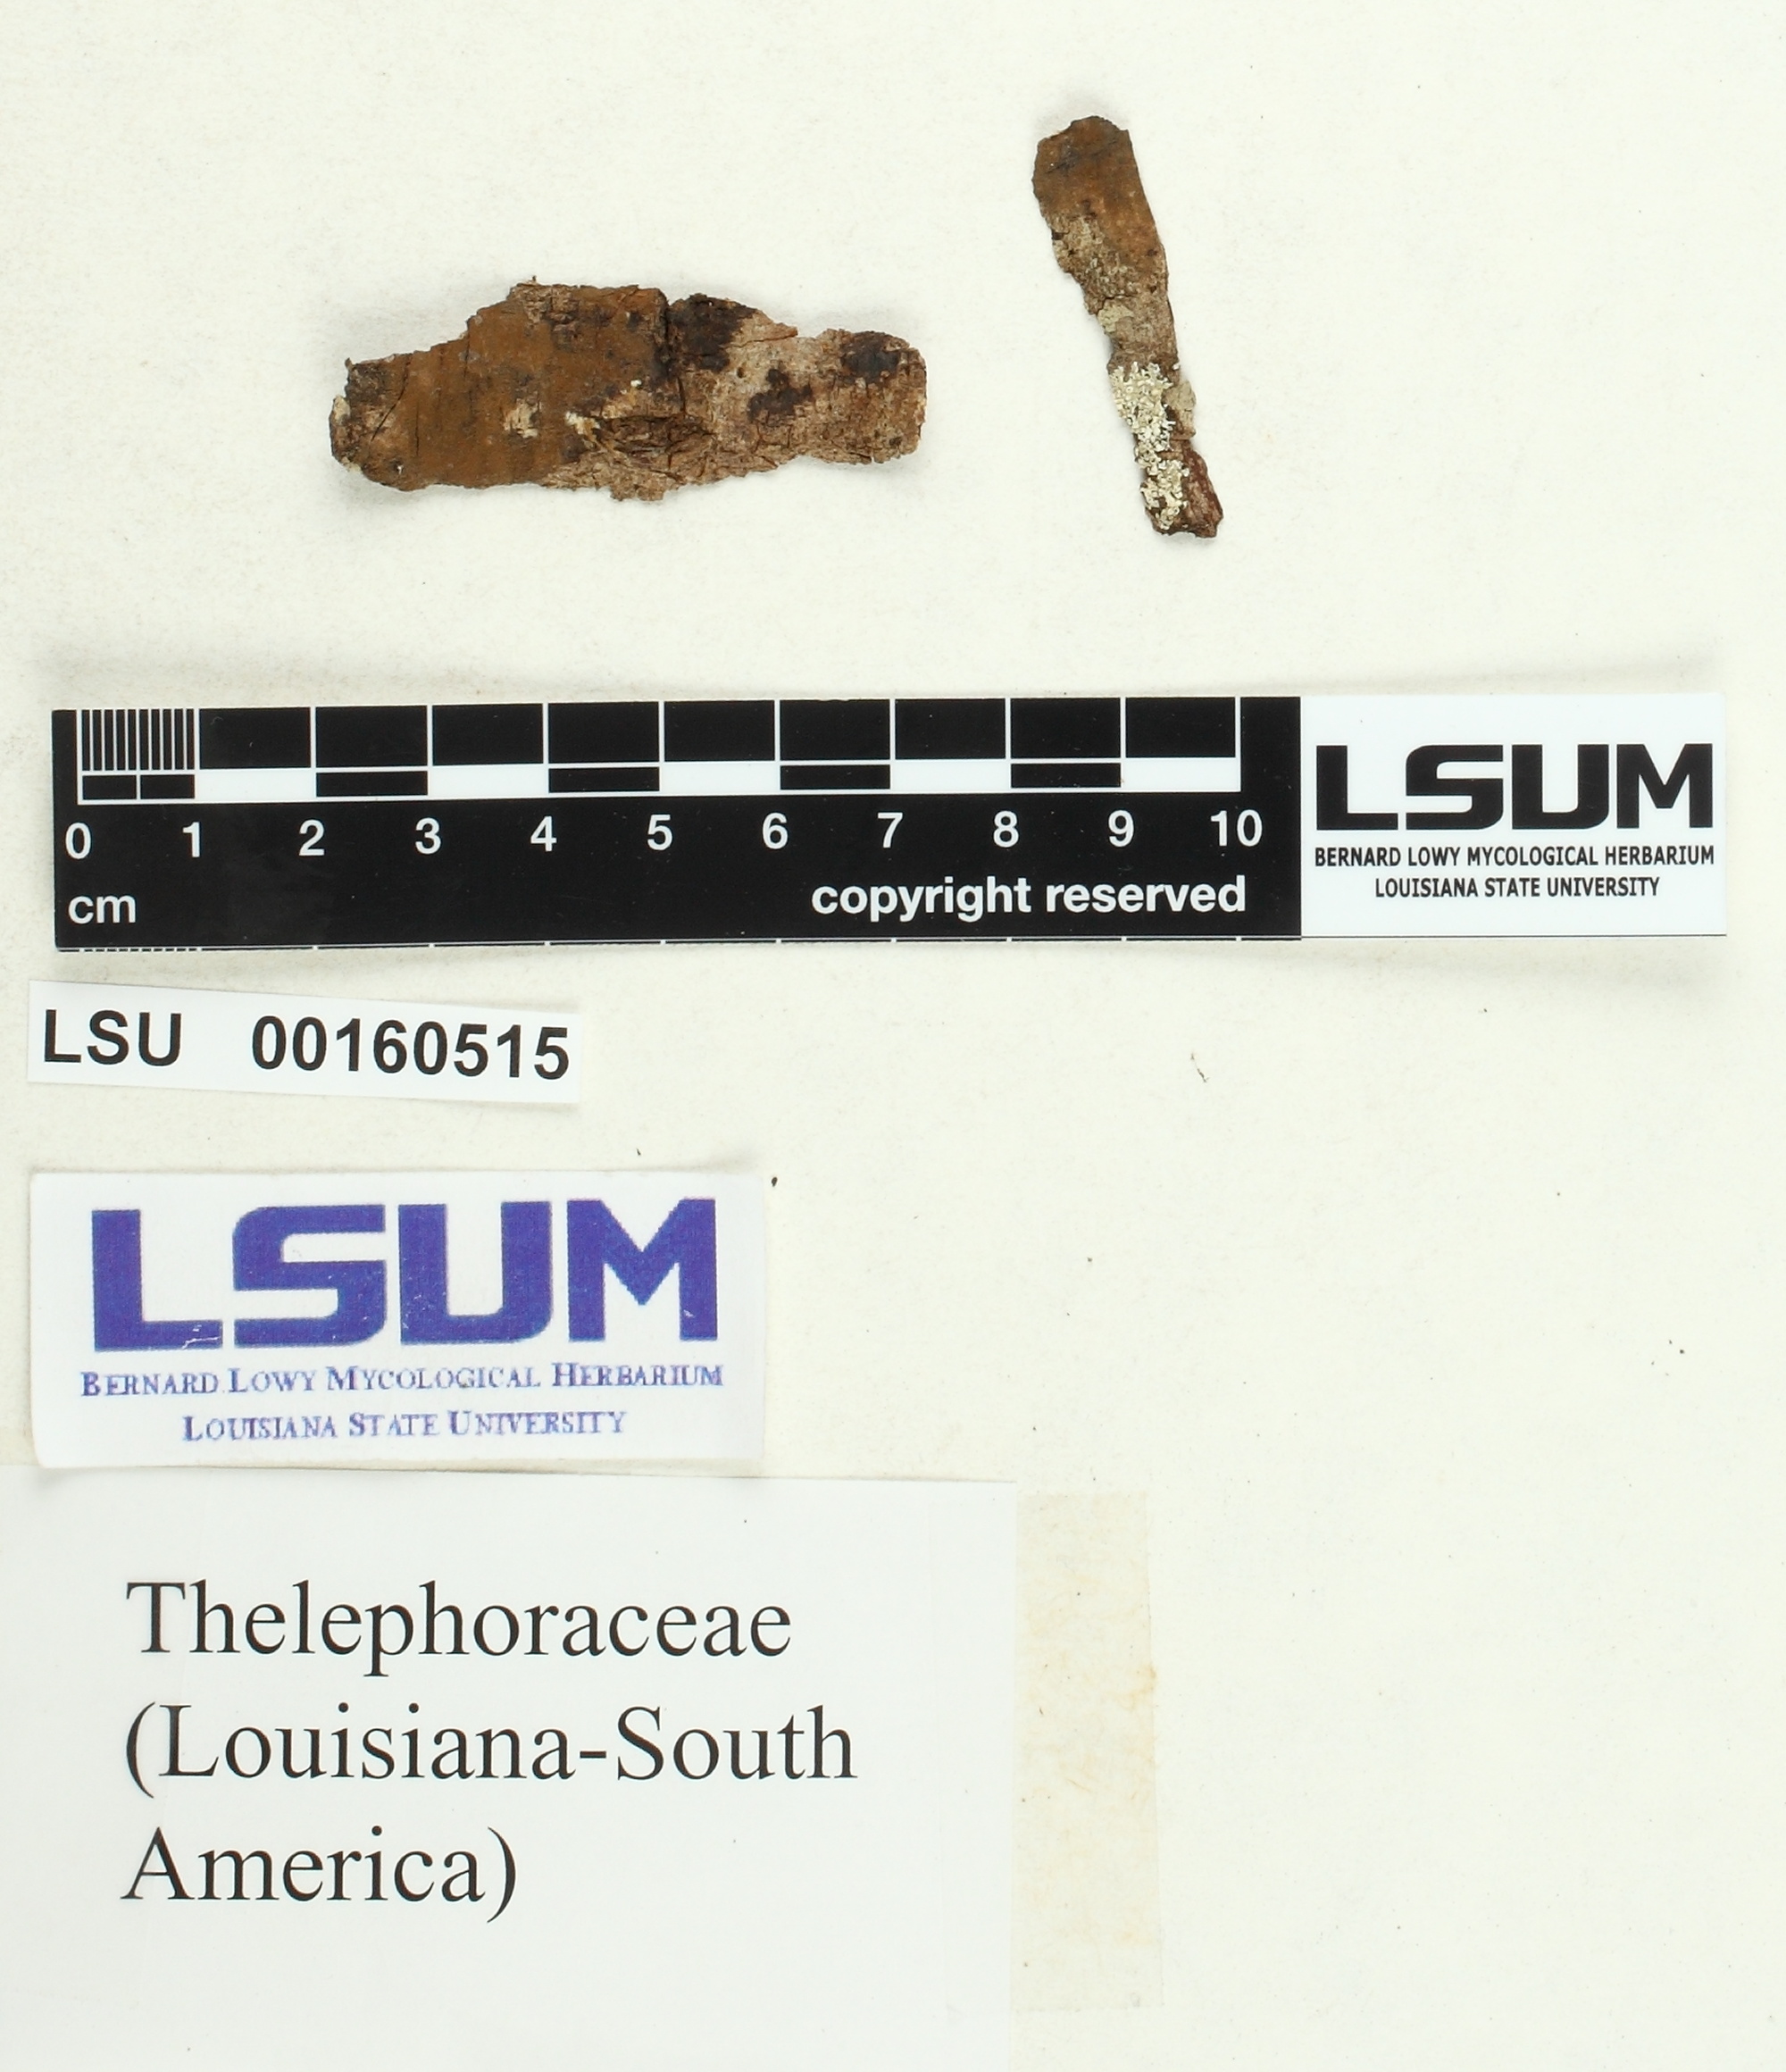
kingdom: Fungi
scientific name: Fungi
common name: Fungi
